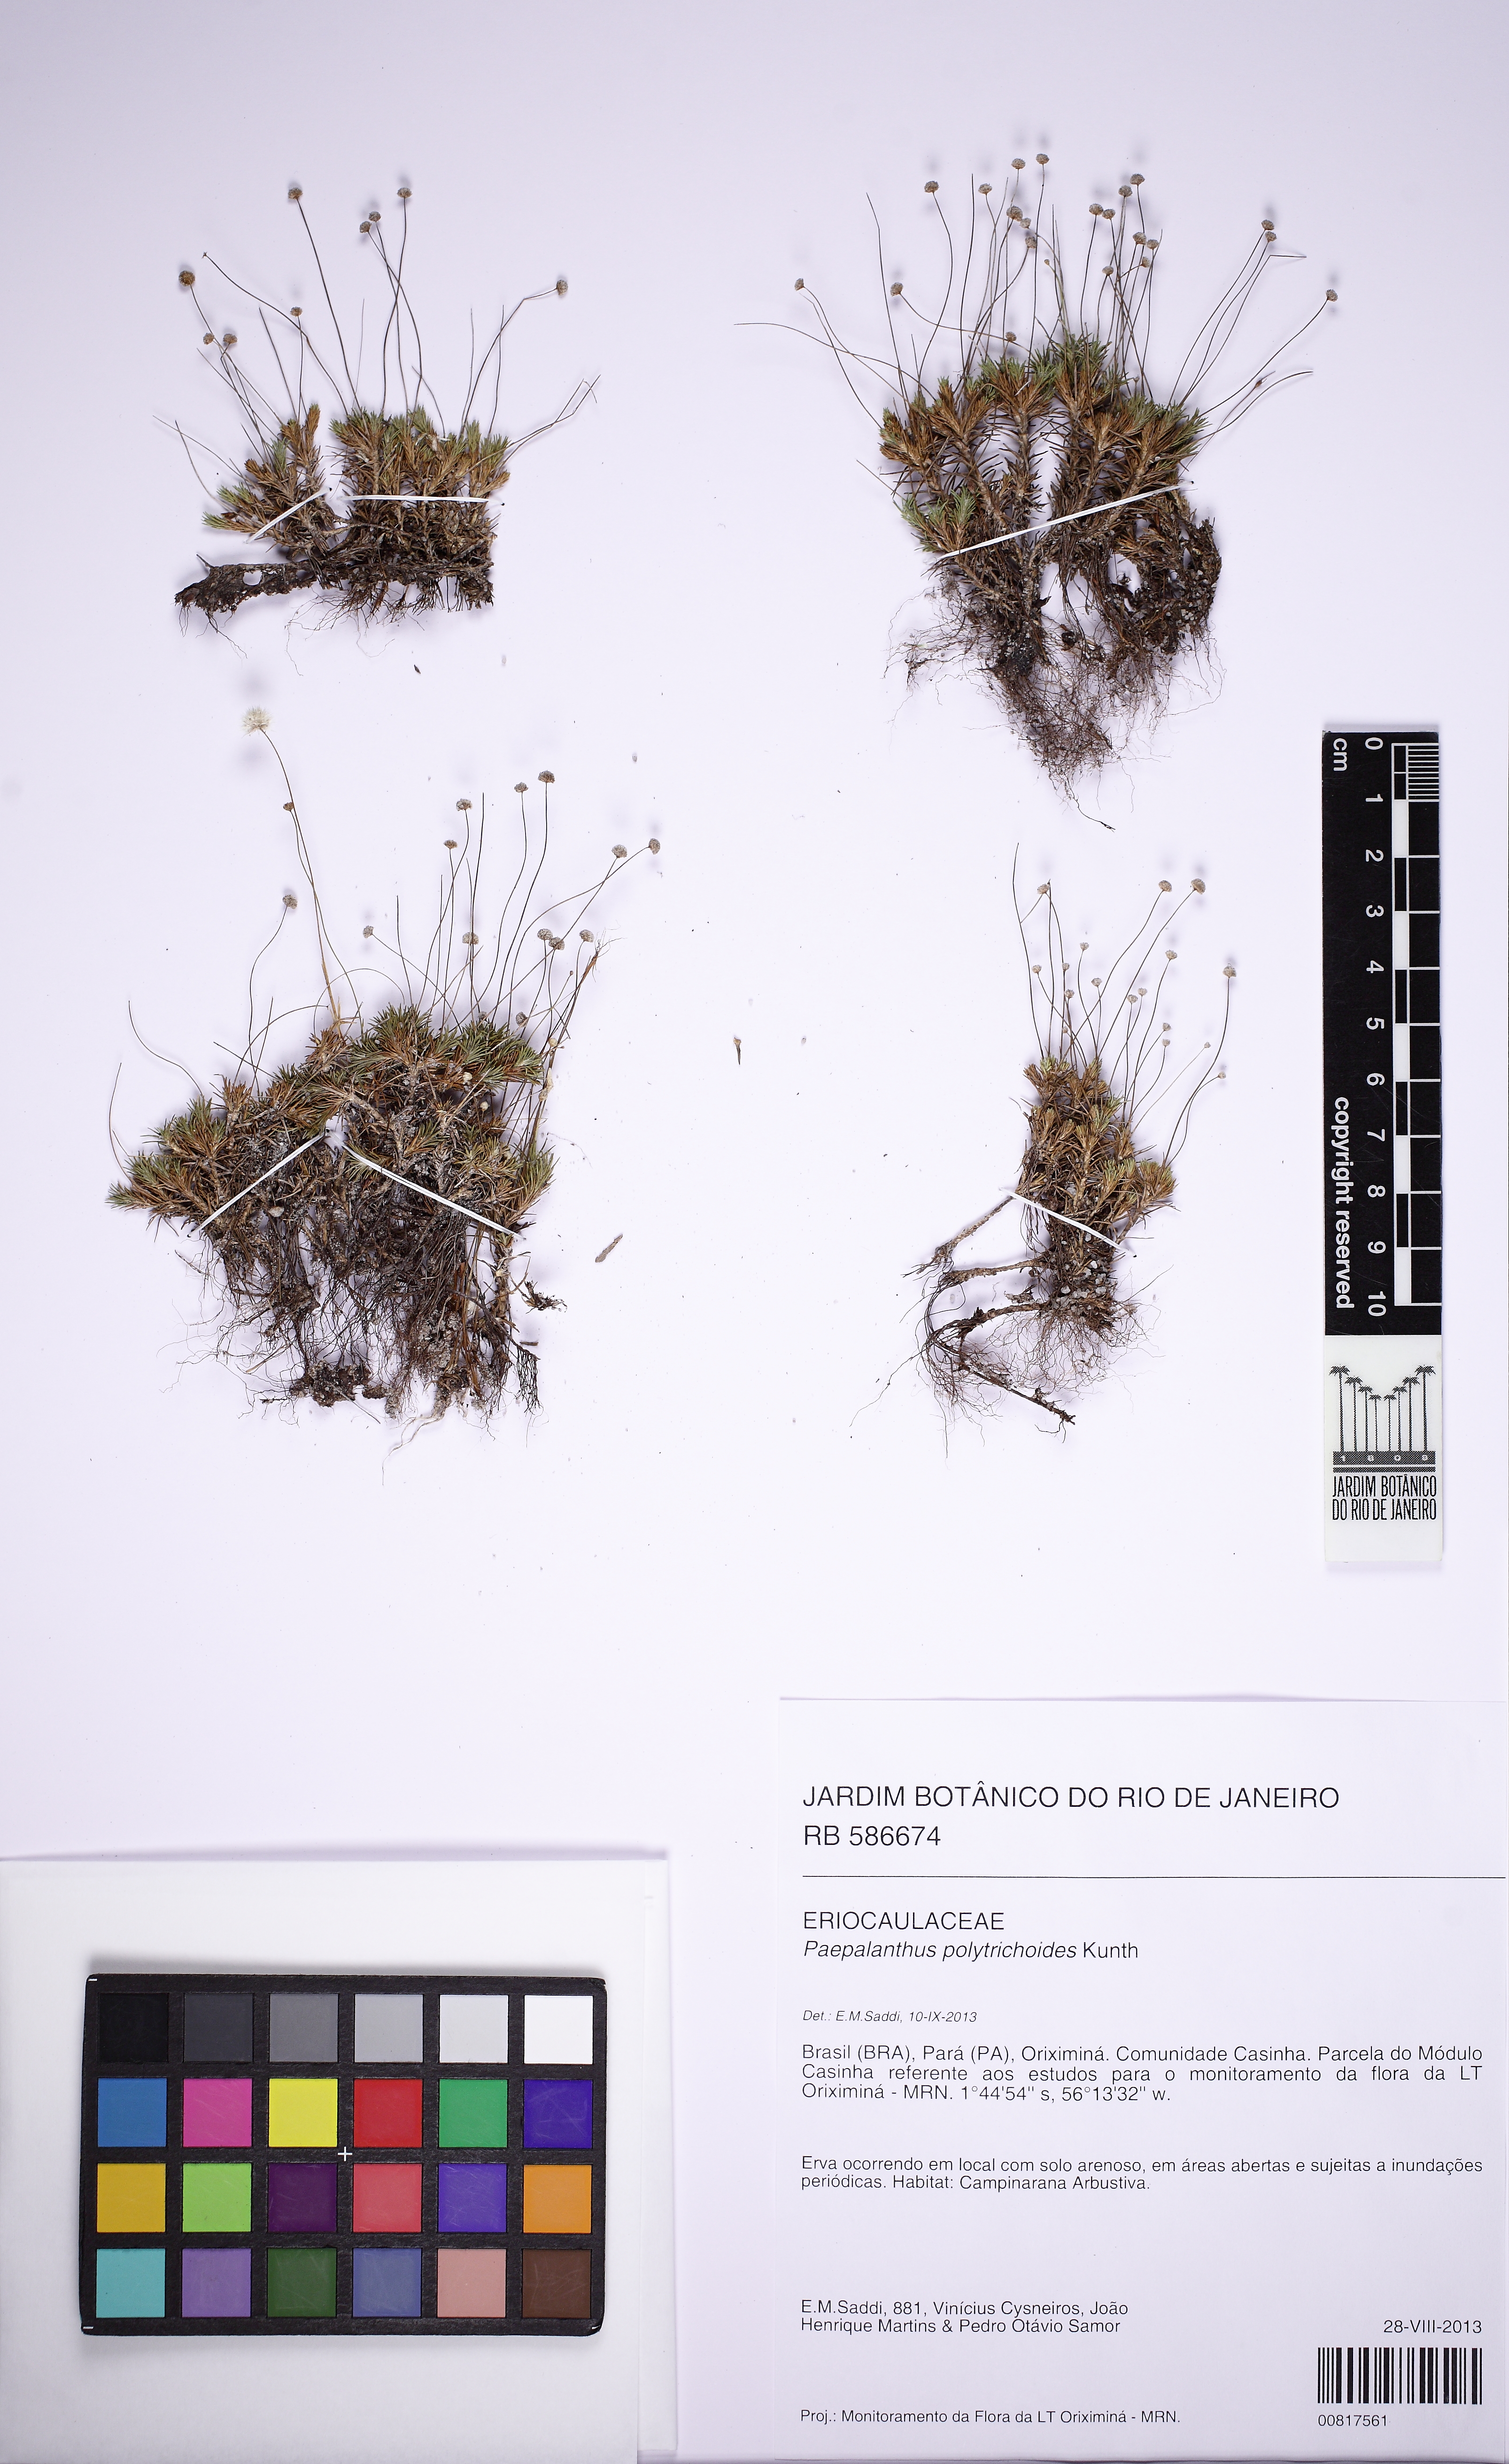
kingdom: Plantae
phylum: Tracheophyta
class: Liliopsida
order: Poales
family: Eriocaulaceae
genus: Paepalanthus
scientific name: Paepalanthus polytrichoides
